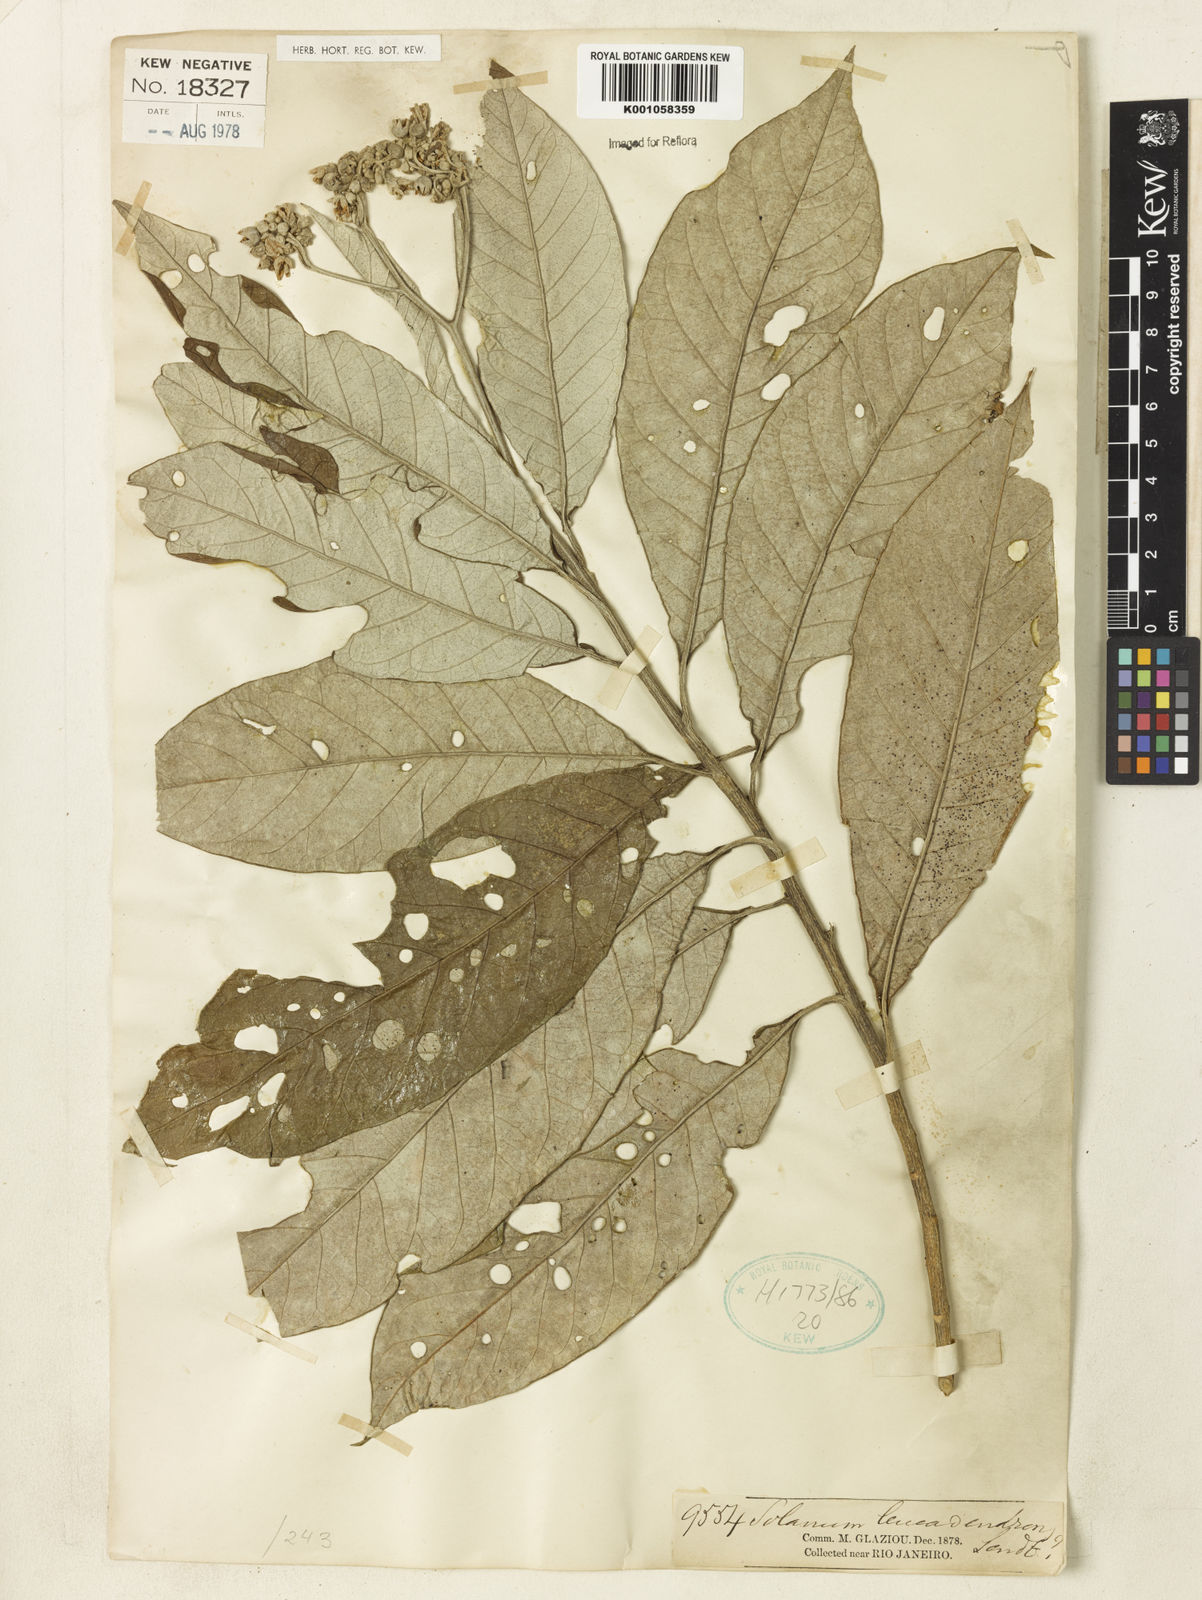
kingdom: Plantae
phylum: Tracheophyta
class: Magnoliopsida
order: Solanales
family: Solanaceae
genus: Solanum
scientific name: Solanum leucodendron
